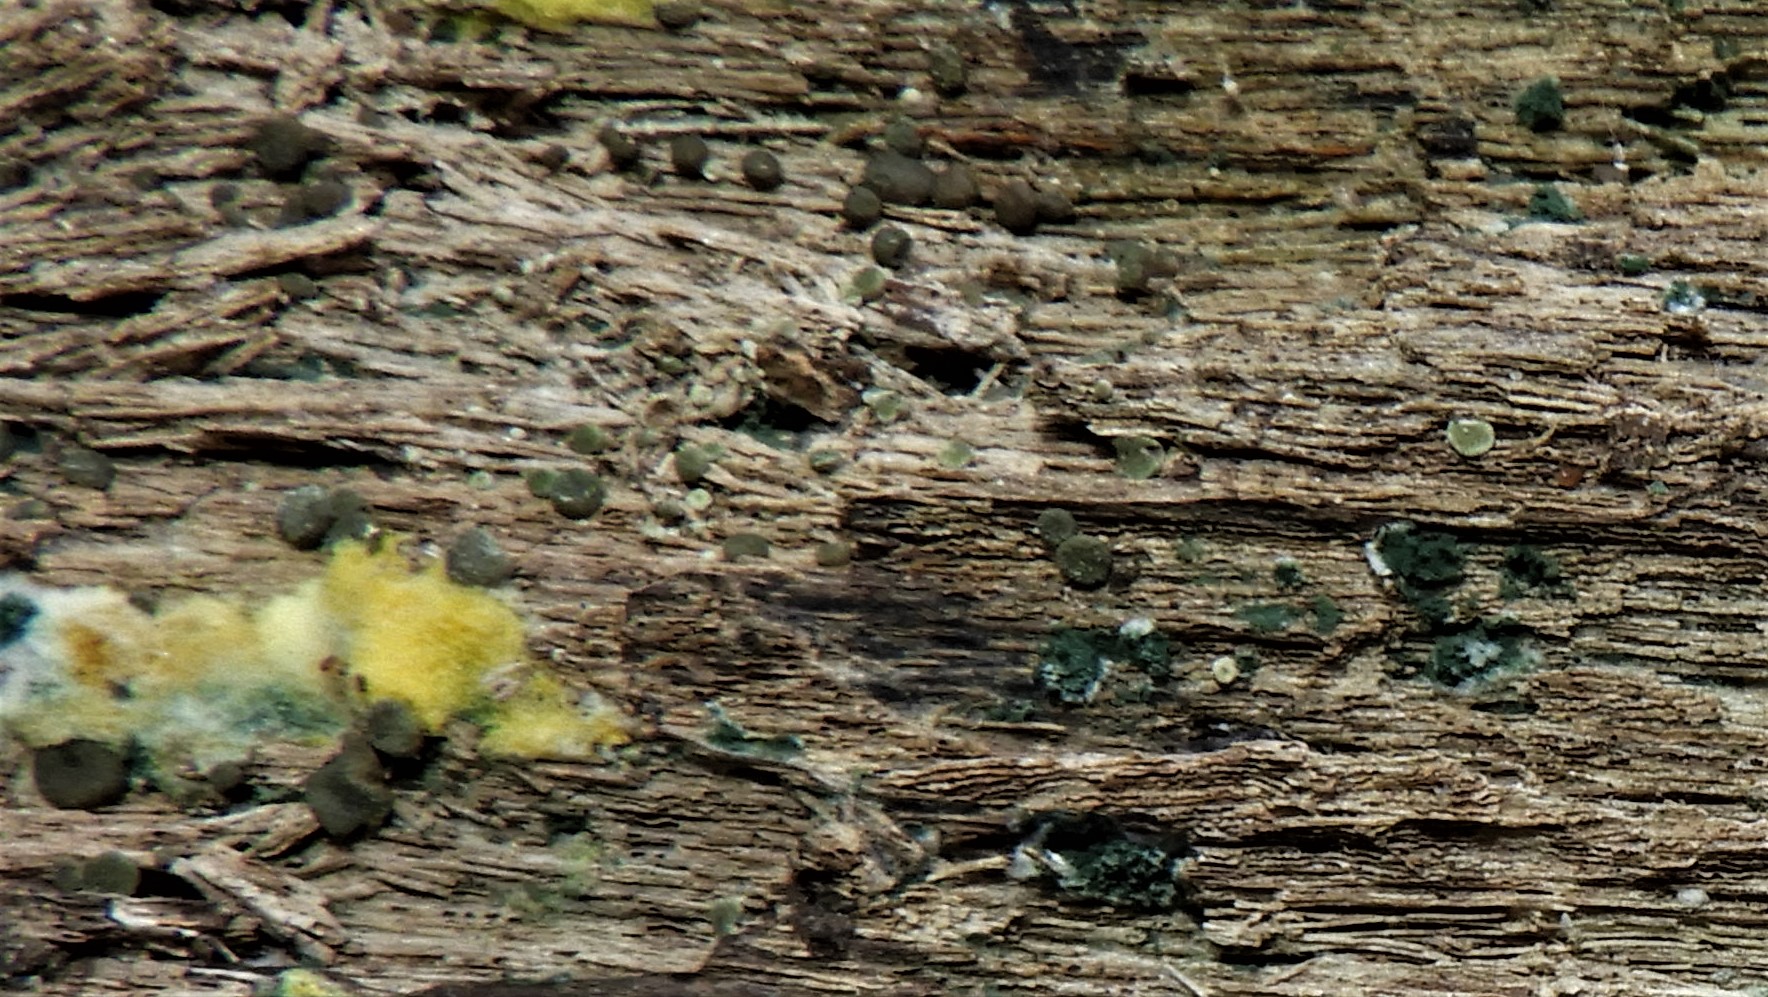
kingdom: Fungi
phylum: Ascomycota
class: Sordariomycetes
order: Hypocreales
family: Hypocreaceae
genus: Trichoderma
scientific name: Trichoderma
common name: kødkerne
